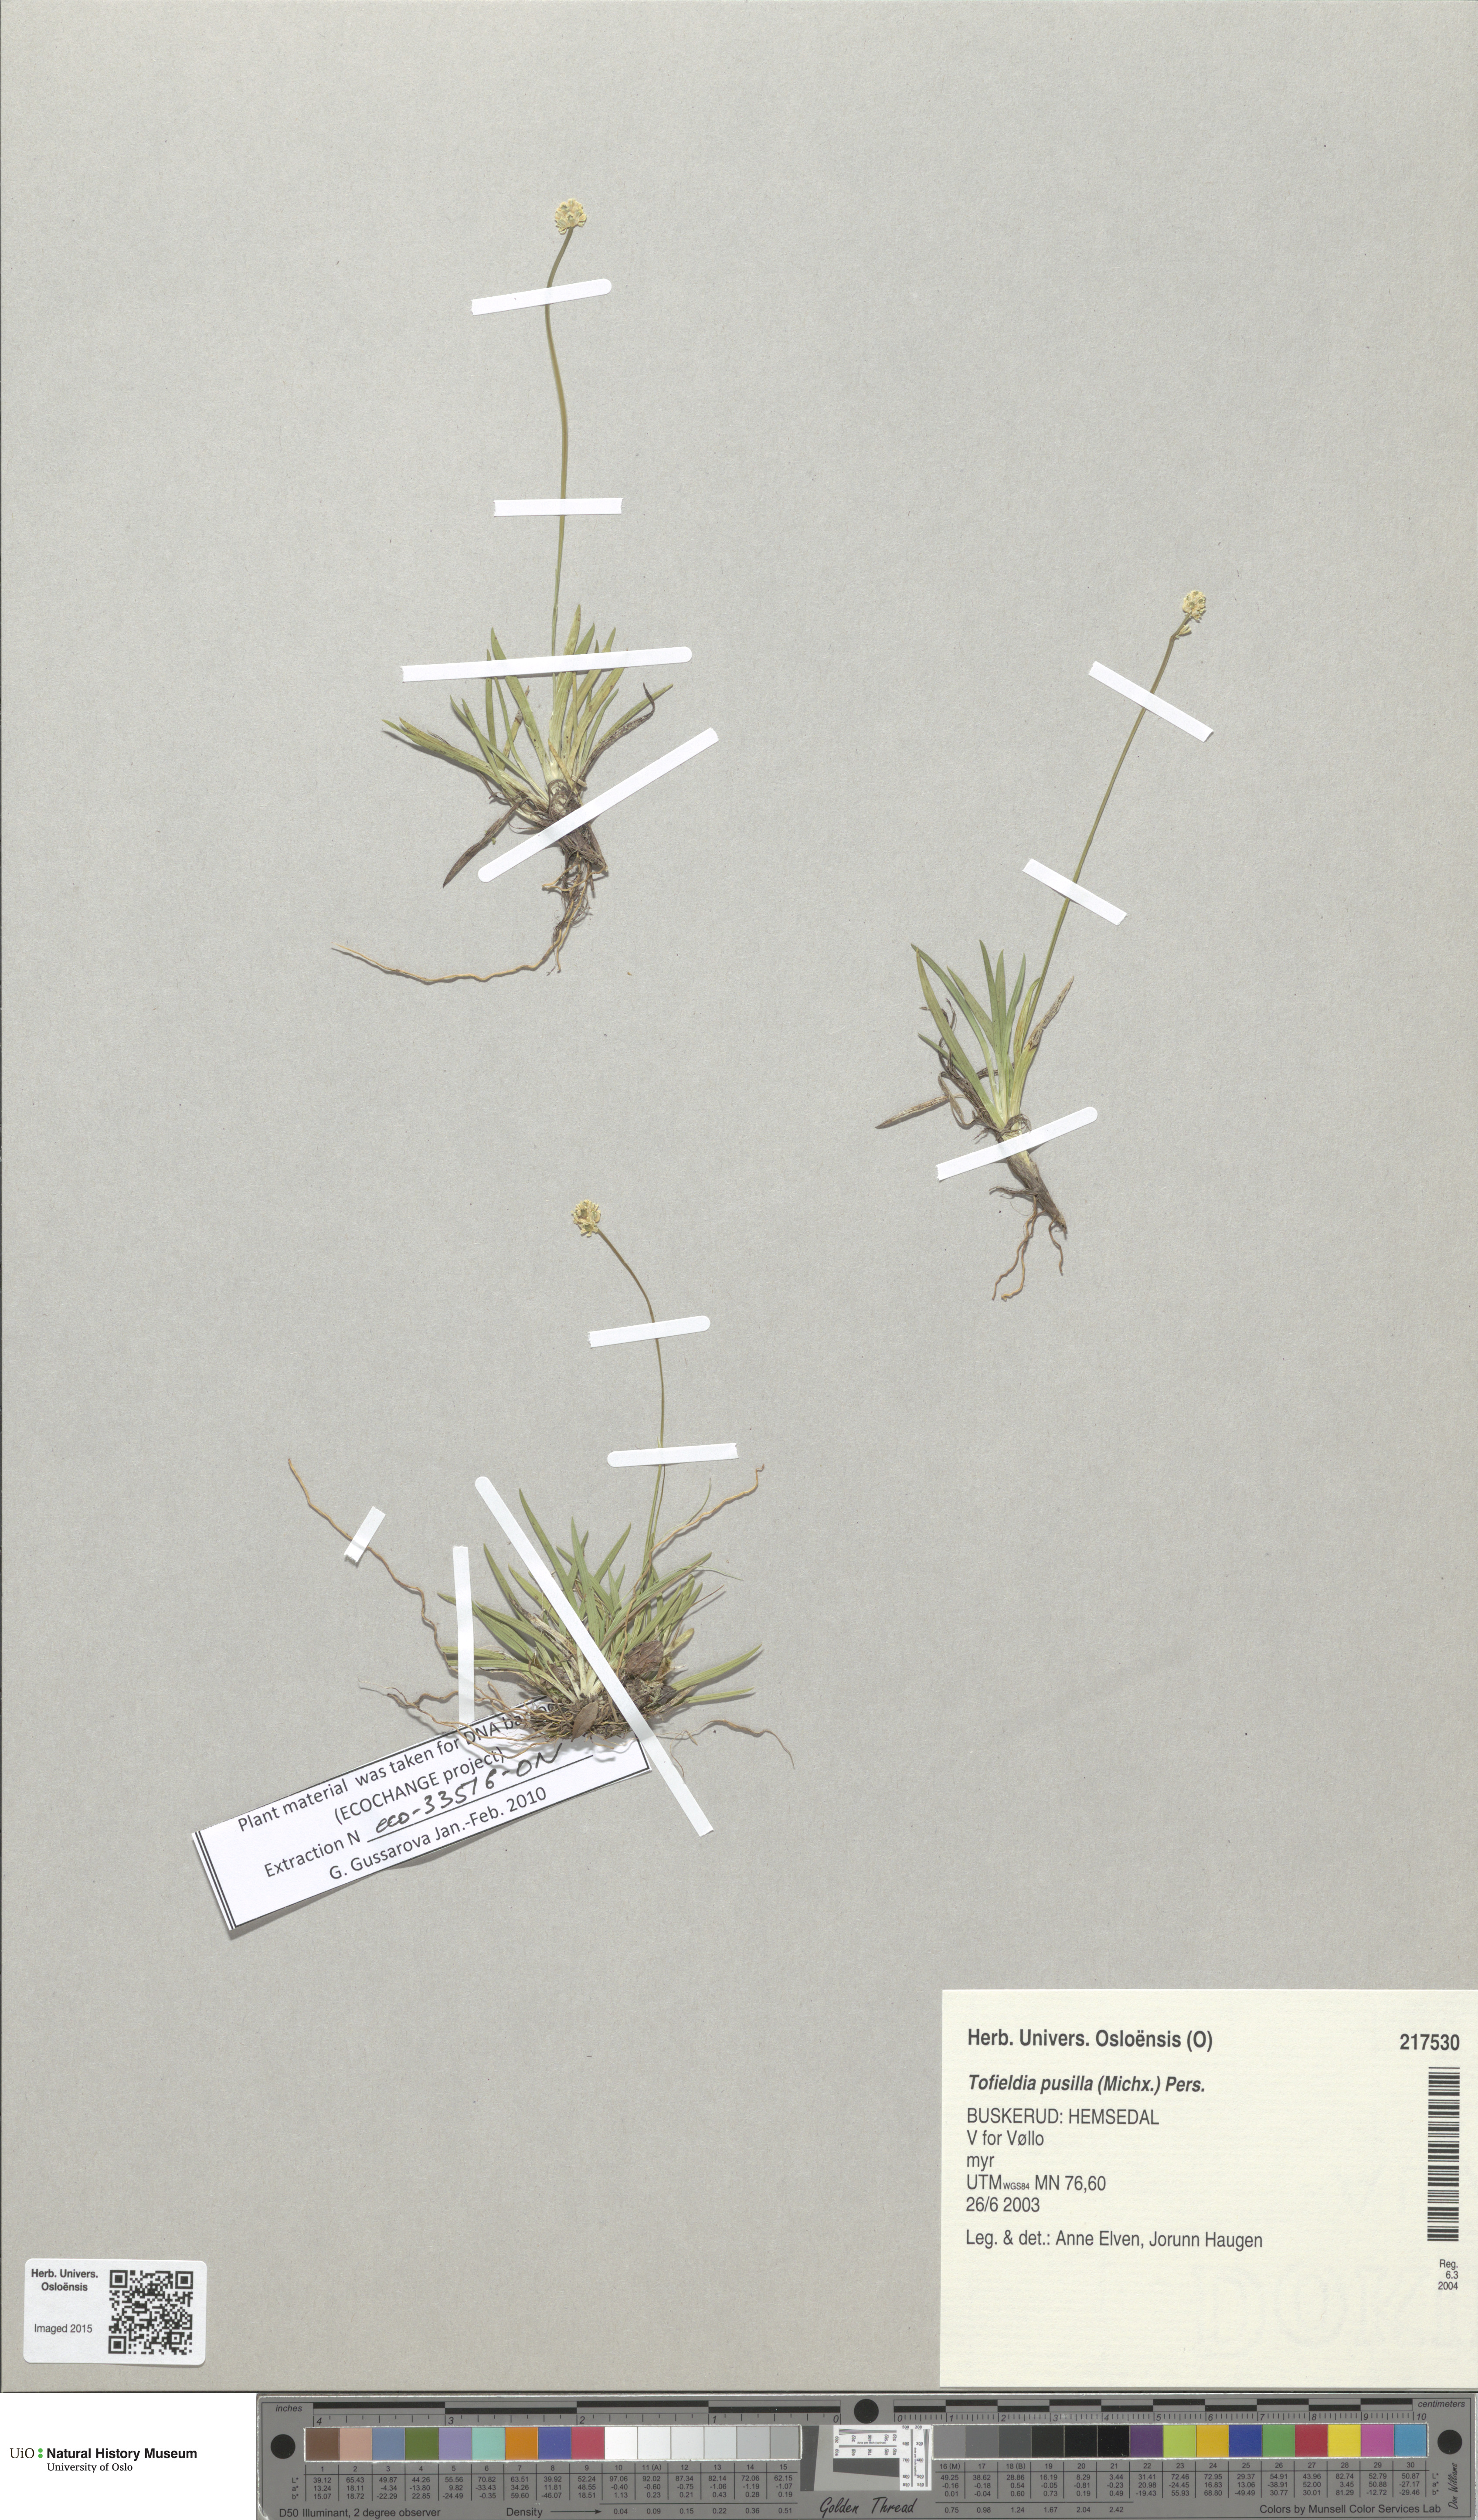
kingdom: Plantae
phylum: Tracheophyta
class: Liliopsida
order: Alismatales
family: Tofieldiaceae
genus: Tofieldia
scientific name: Tofieldia pusilla
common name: Scottish false asphodel
